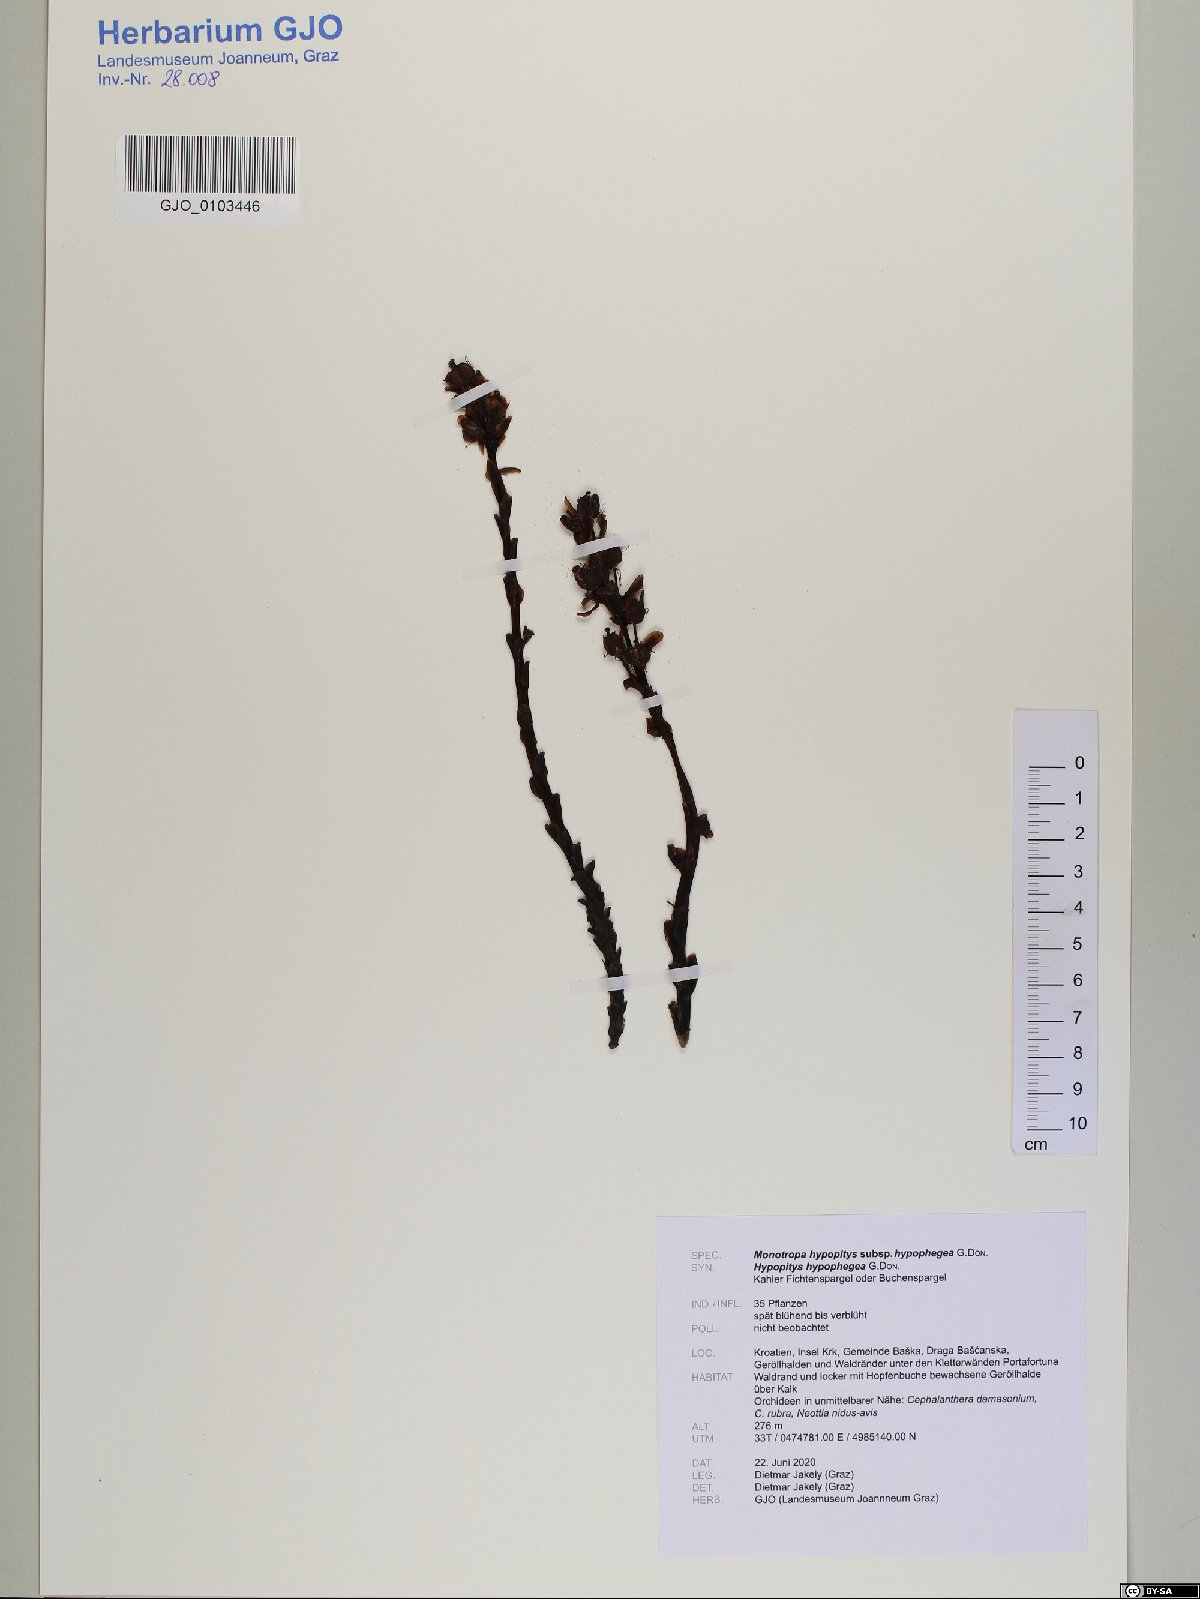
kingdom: Plantae
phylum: Tracheophyta
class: Magnoliopsida
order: Ericales
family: Ericaceae
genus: Hypopitys
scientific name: Hypopitys monotropa
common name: Yellow bird's-nest
